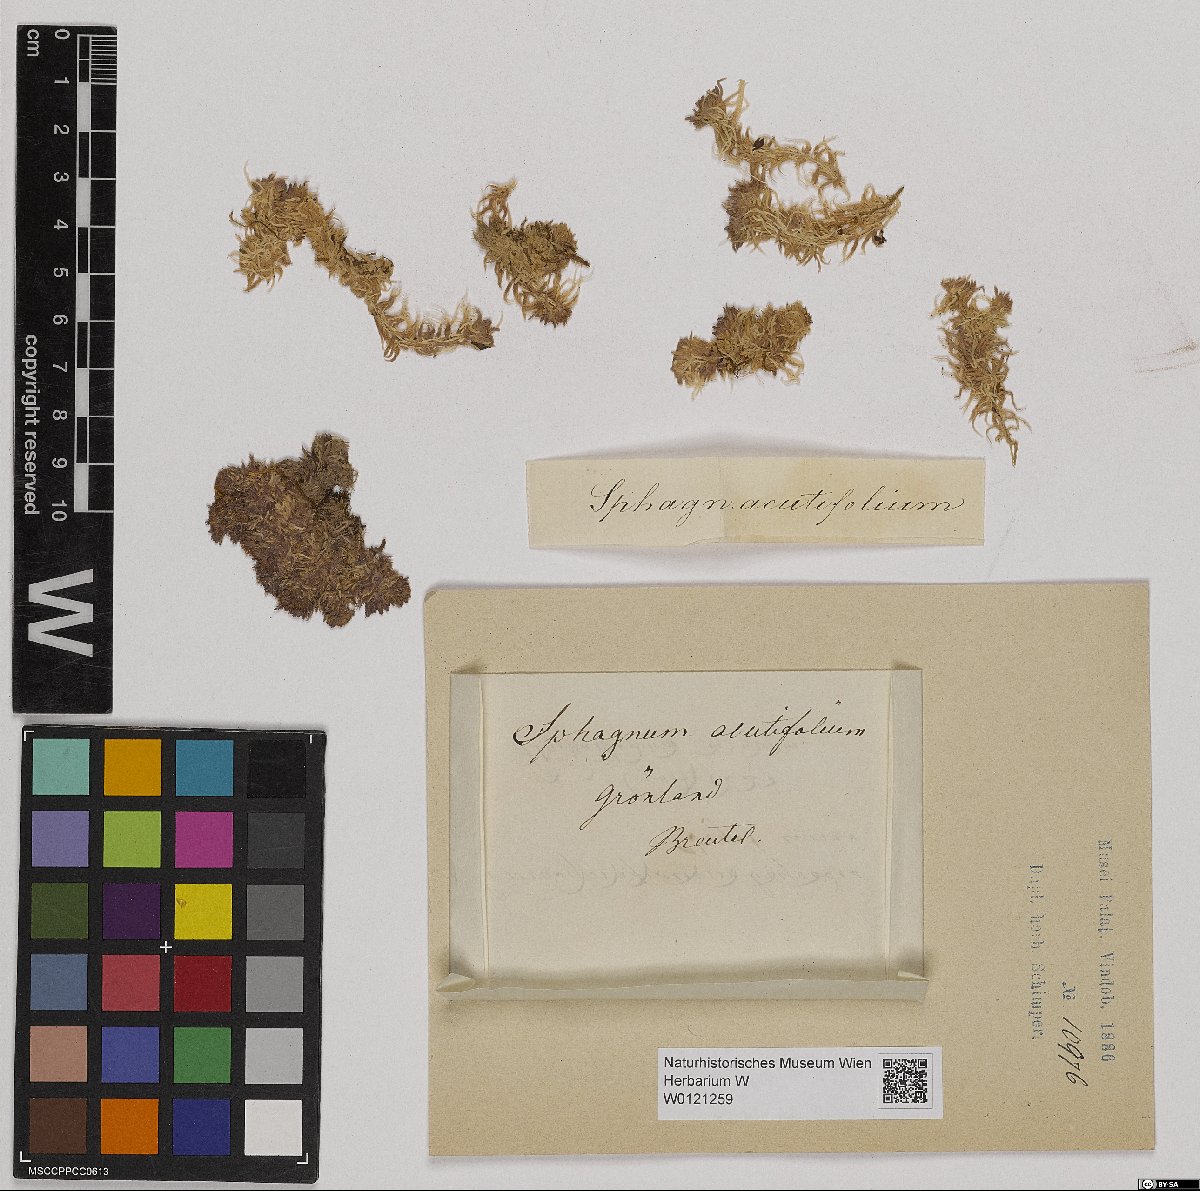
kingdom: Plantae
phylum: Bryophyta
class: Sphagnopsida
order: Sphagnales
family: Sphagnaceae
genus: Sphagnum
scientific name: Sphagnum capillifolium
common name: Small red peat moss
